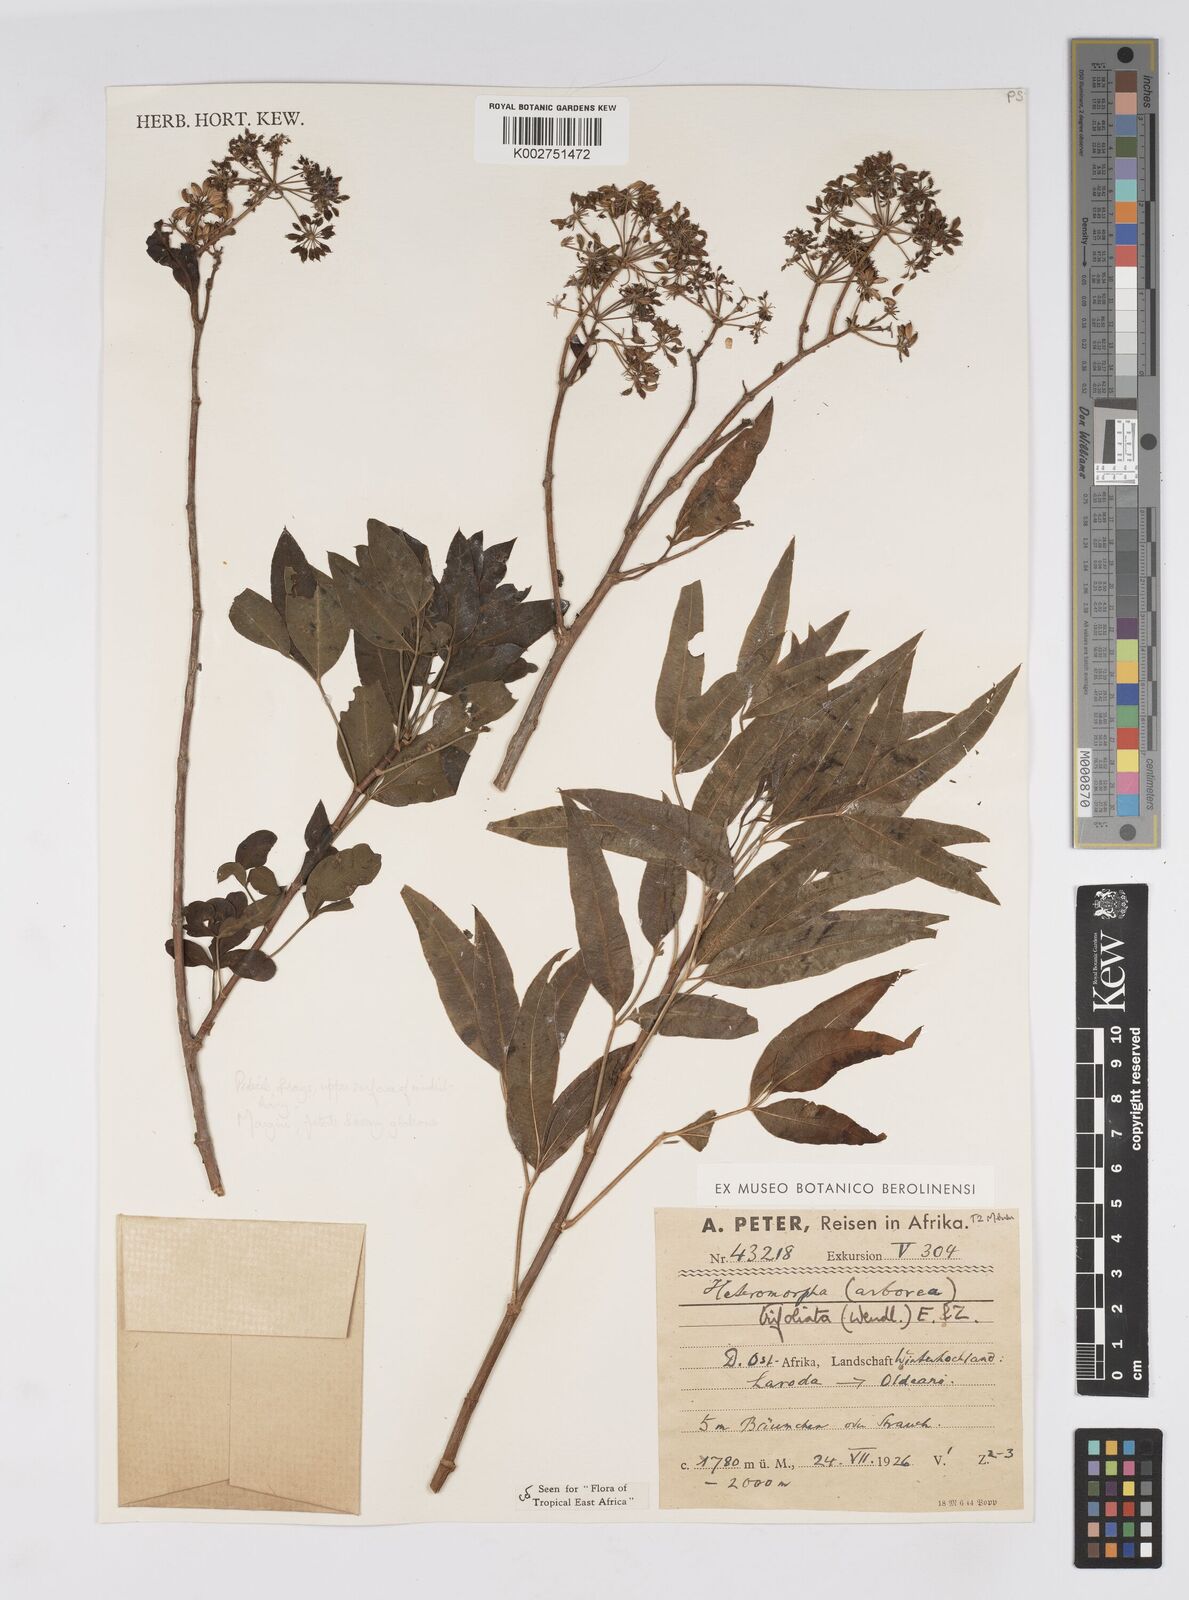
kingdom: Plantae
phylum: Tracheophyta
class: Magnoliopsida
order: Apiales
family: Apiaceae
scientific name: Apiaceae
